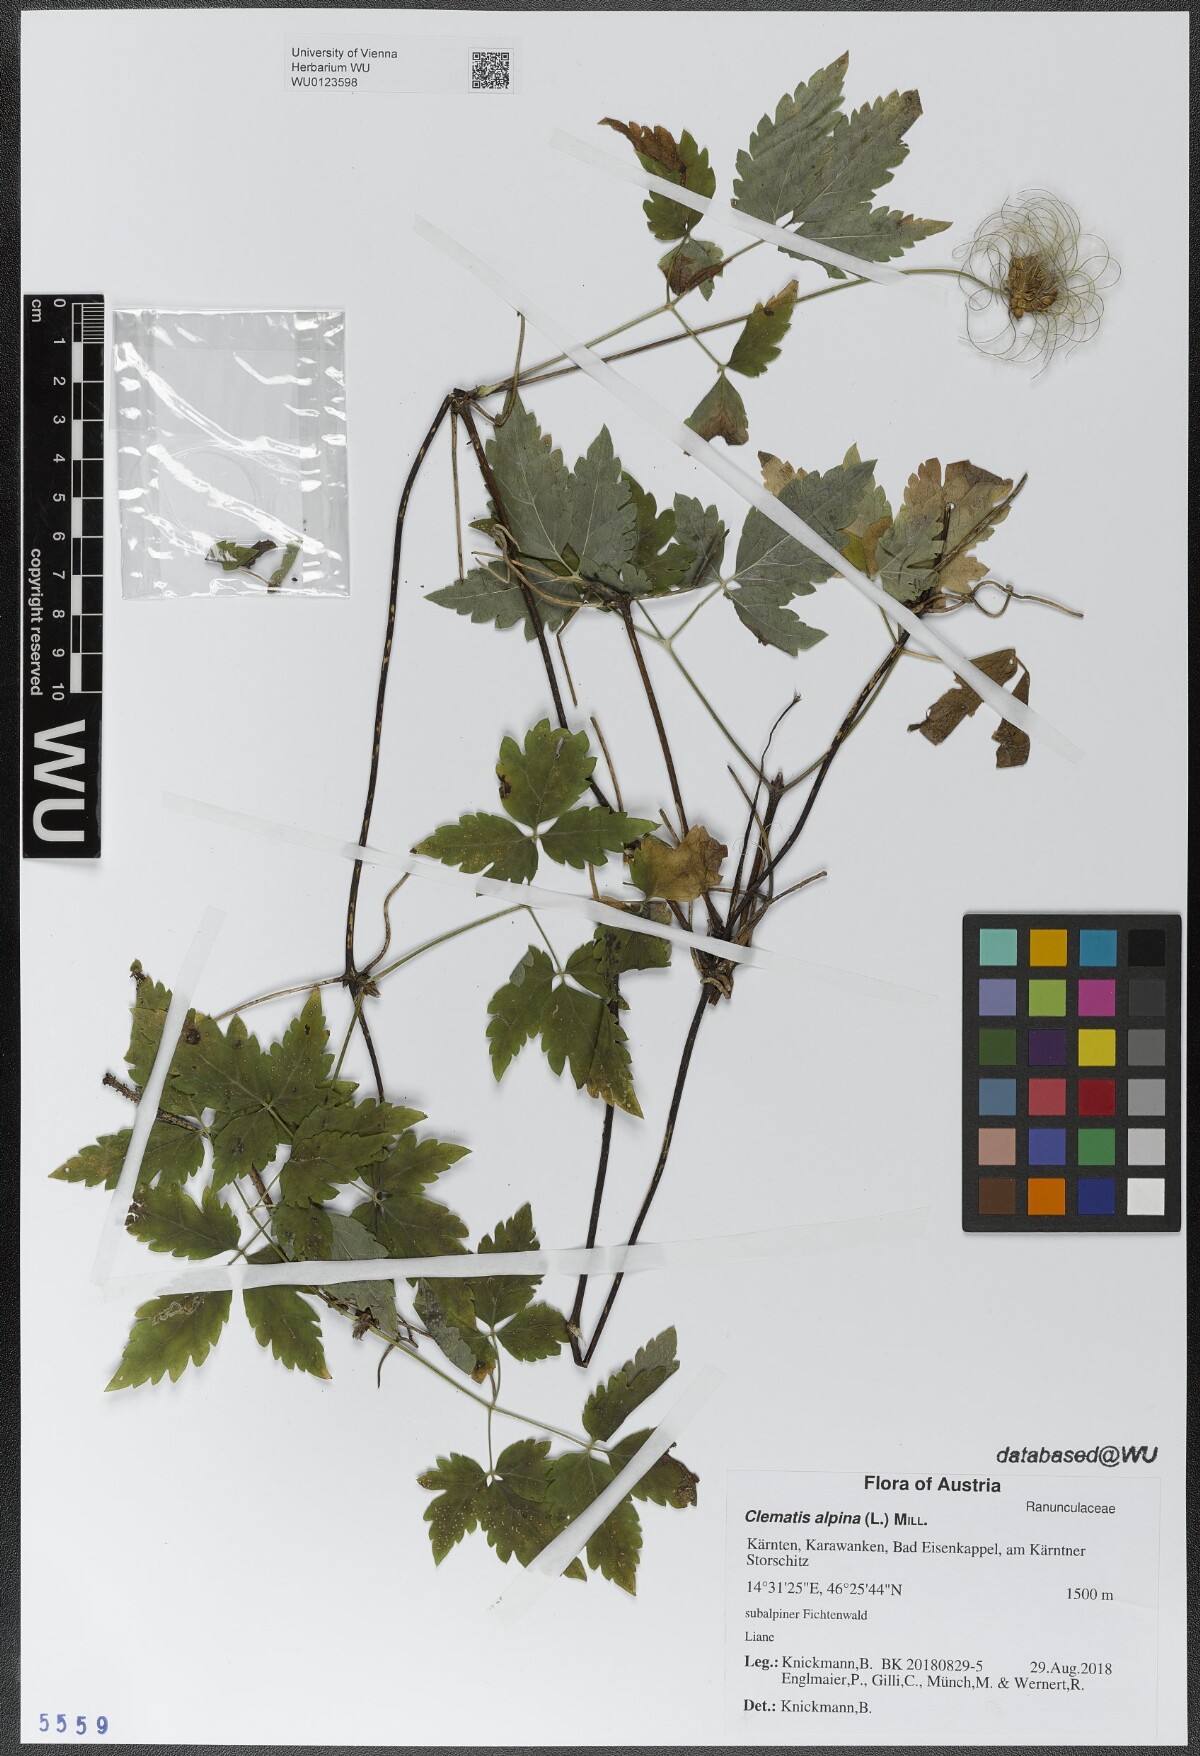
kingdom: Plantae
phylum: Tracheophyta
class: Magnoliopsida
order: Ranunculales
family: Ranunculaceae
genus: Clematis
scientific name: Clematis alpina
